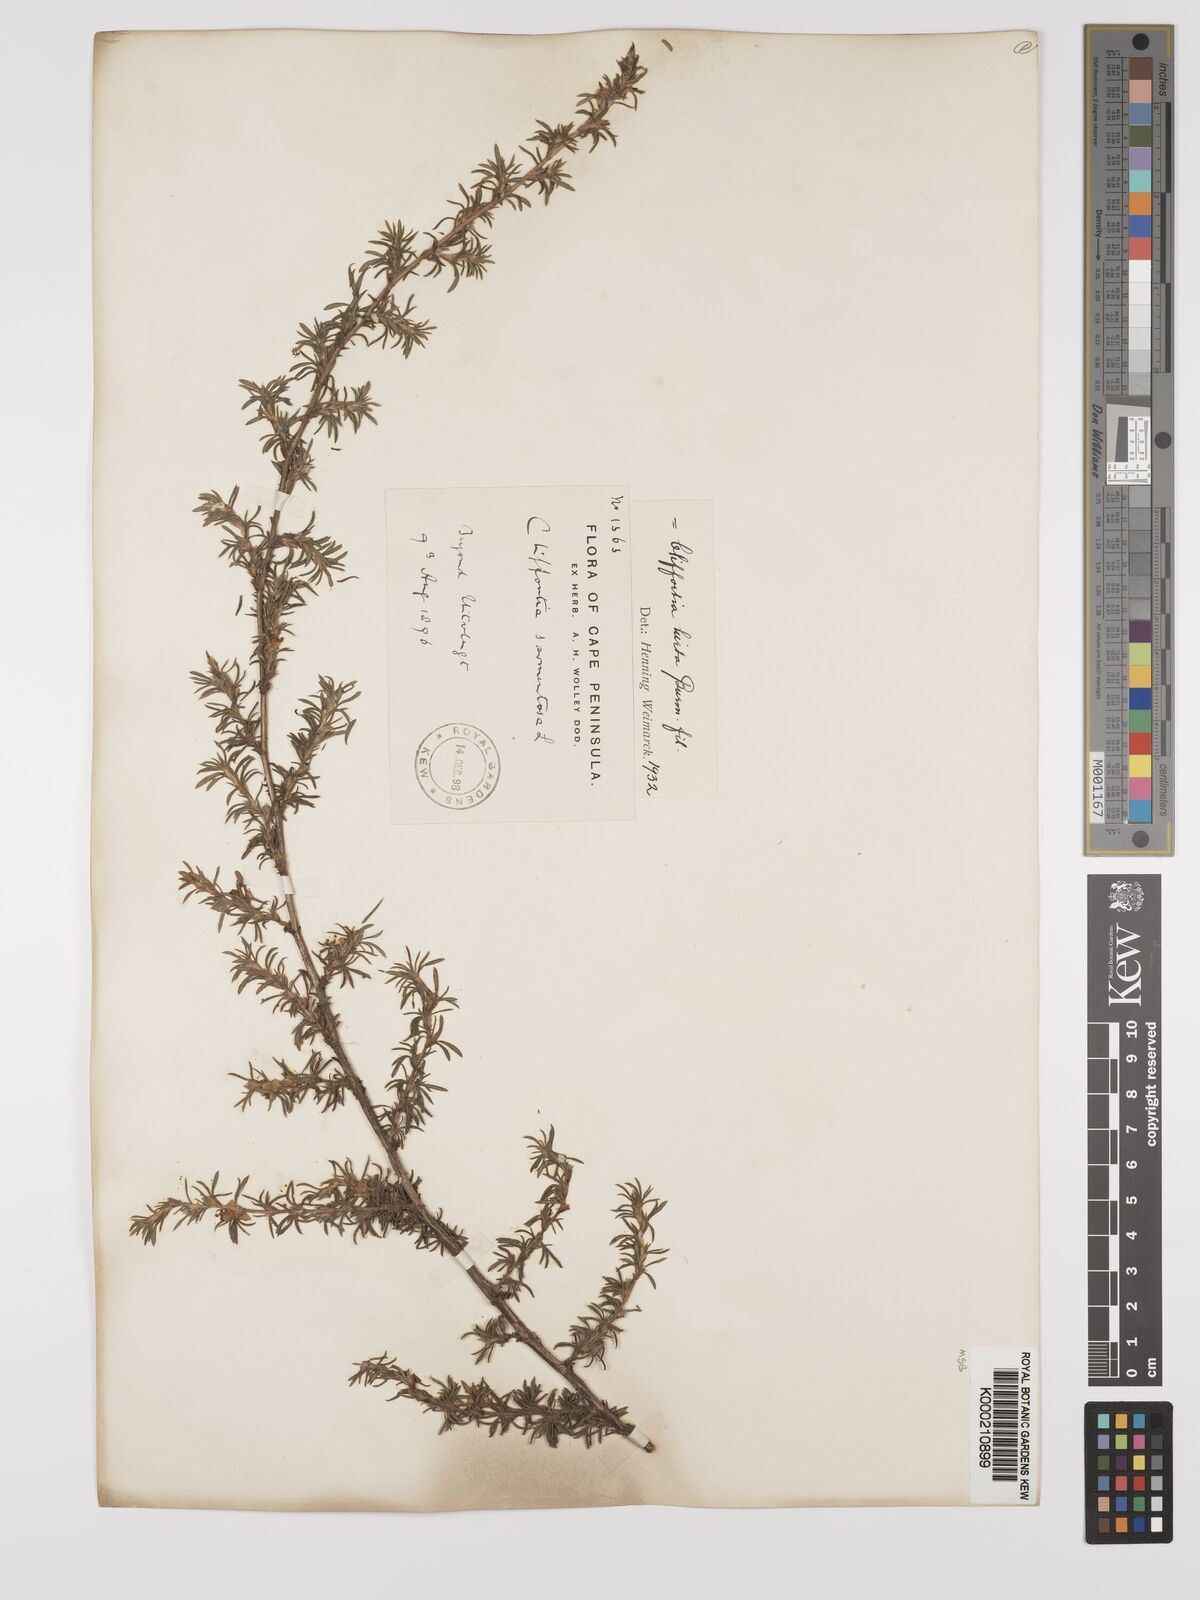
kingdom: Plantae
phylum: Tracheophyta
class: Magnoliopsida
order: Rosales
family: Rosaceae
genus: Cliffortia
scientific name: Cliffortia hirta
